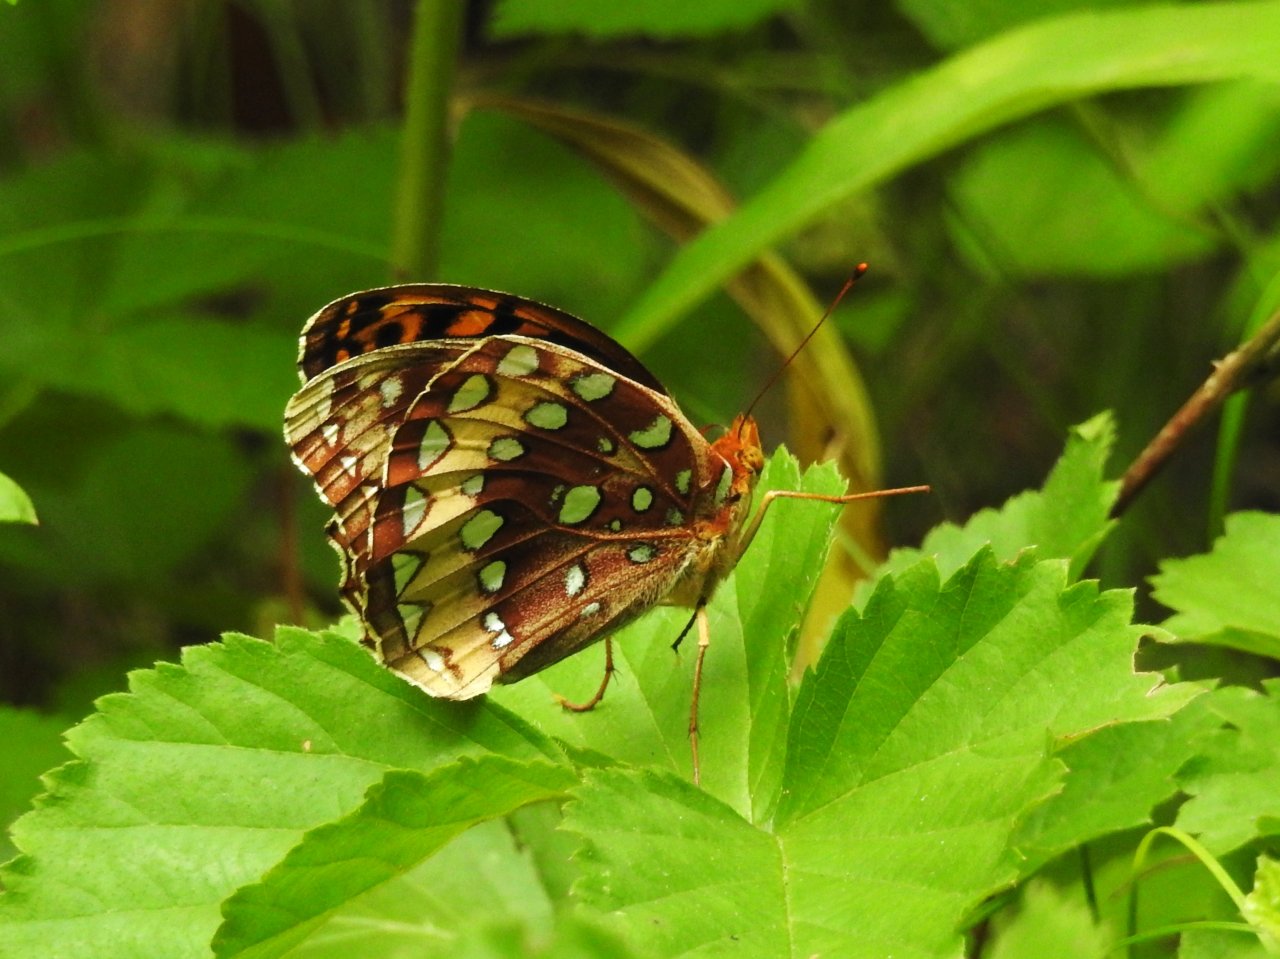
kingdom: Animalia
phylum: Arthropoda
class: Insecta
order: Lepidoptera
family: Nymphalidae
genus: Speyeria
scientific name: Speyeria cybele
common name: Great Spangled Fritillary
